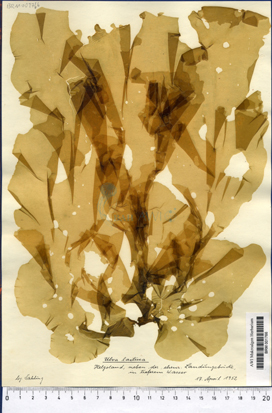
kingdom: Plantae
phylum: Chlorophyta
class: Ulvophyceae
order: Ulvales
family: Ulvaceae
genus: Ulva
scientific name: Ulva lactuca
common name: Sea lettuce
